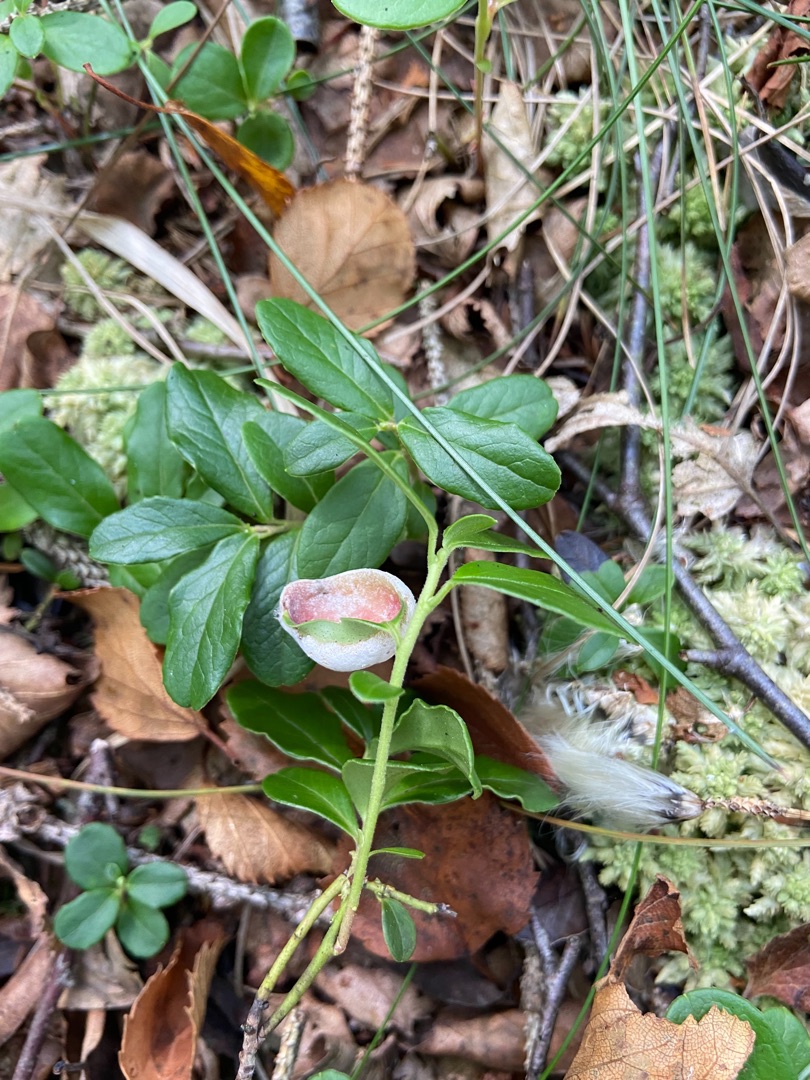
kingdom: Fungi
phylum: Basidiomycota
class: Exobasidiomycetes
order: Exobasidiales
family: Exobasidiaceae
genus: Exobasidium
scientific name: Exobasidium vaccinii
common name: Tyttebærblad-bøllesvamp
